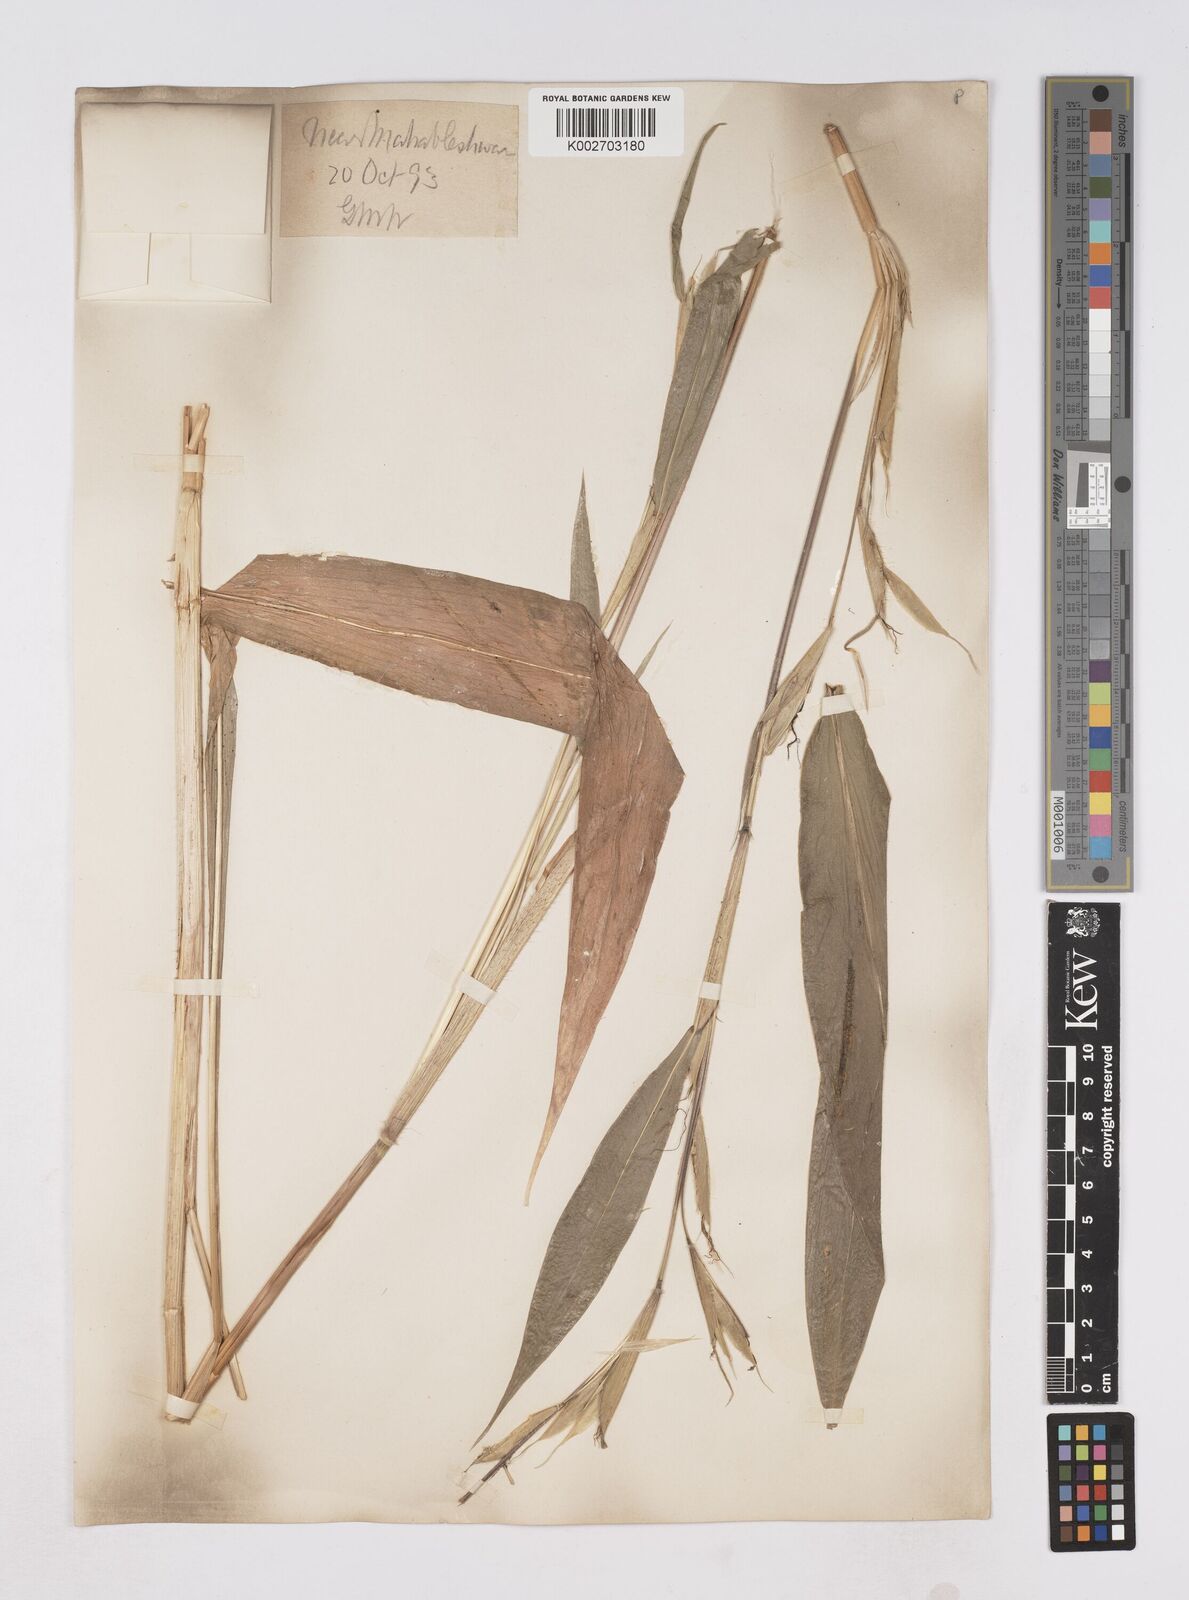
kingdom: Plantae
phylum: Tracheophyta
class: Liliopsida
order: Poales
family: Poaceae
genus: Trilobachne
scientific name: Trilobachne cookei
